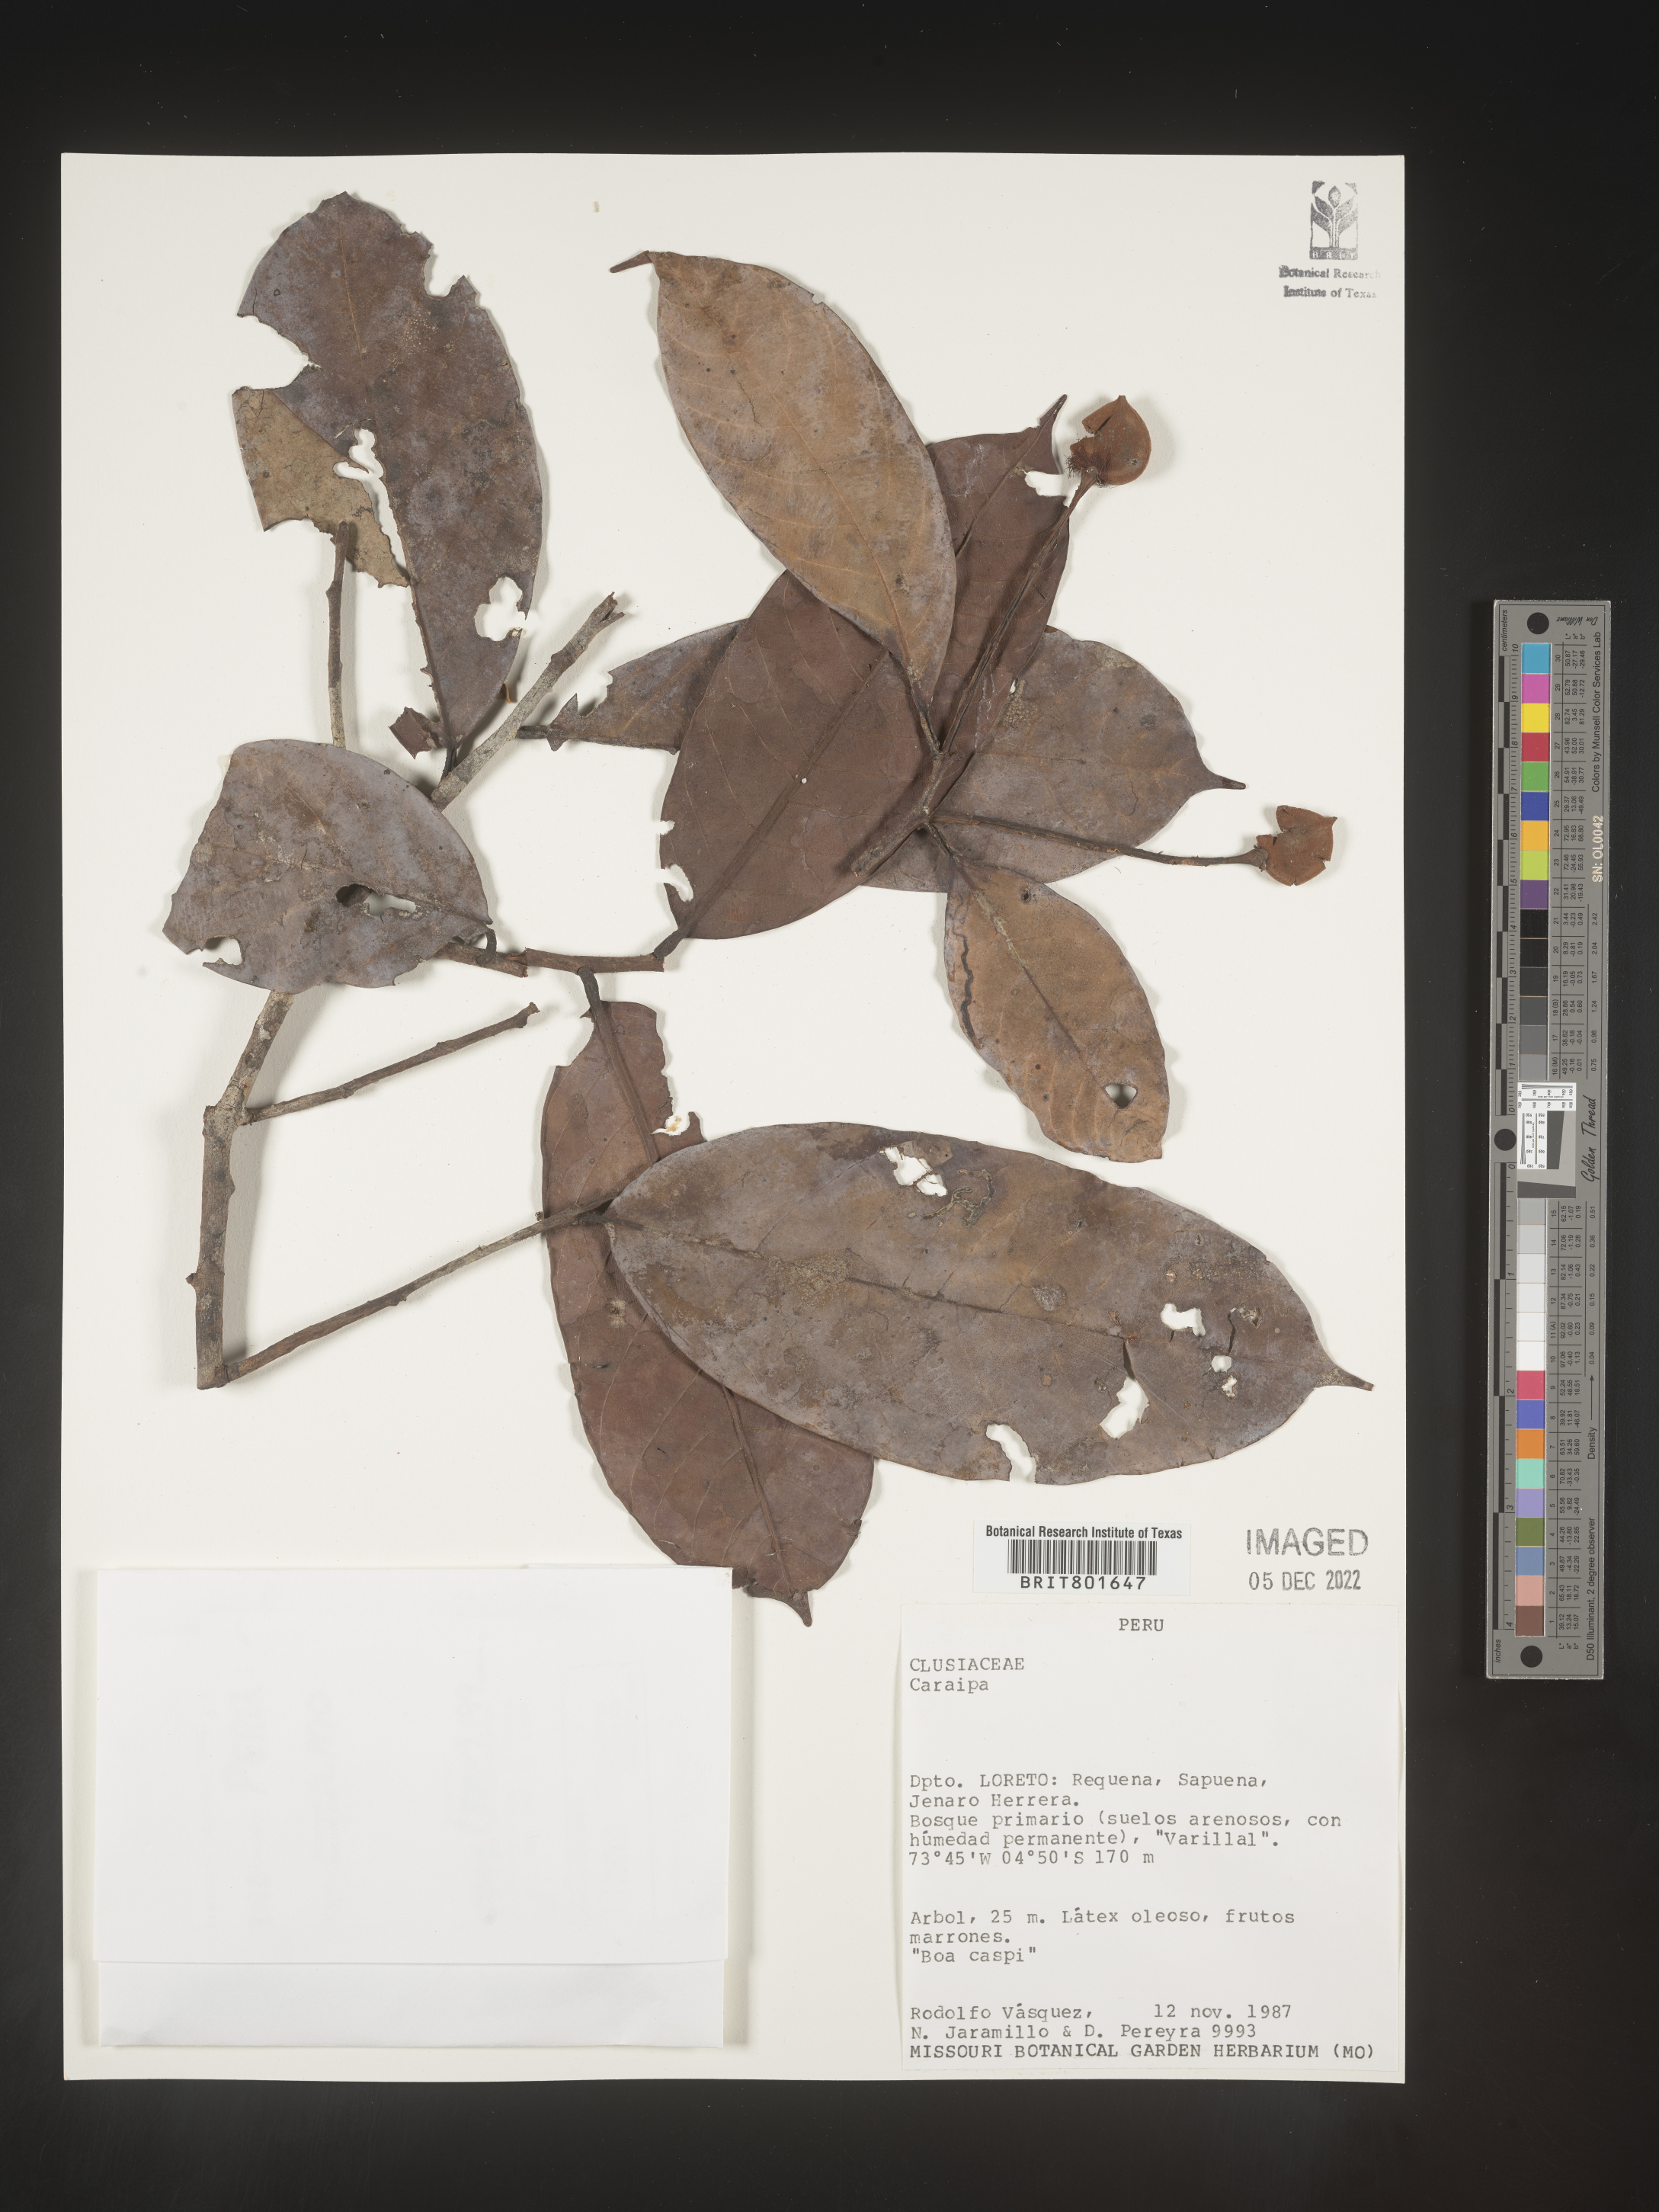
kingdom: Plantae
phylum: Tracheophyta
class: Magnoliopsida
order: Malpighiales
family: Calophyllaceae
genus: Caraipa
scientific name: Caraipa
